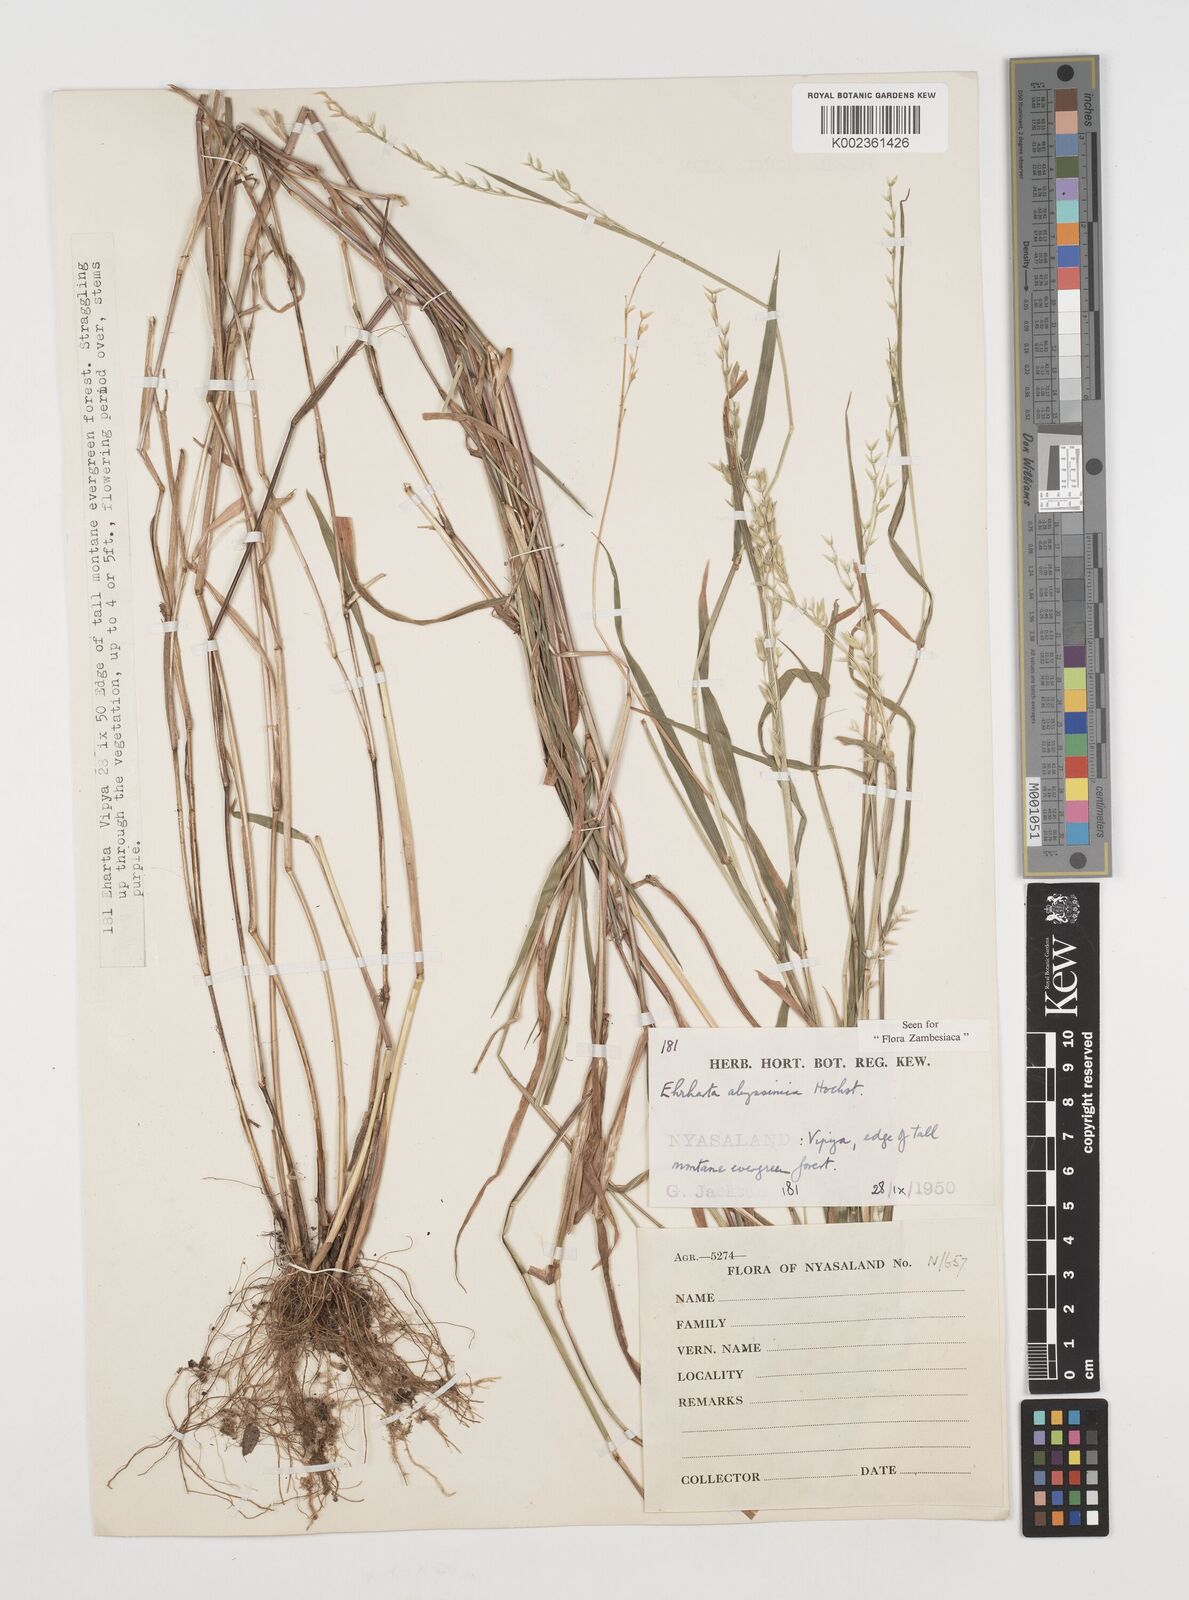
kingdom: Plantae
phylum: Tracheophyta
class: Liliopsida
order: Poales
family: Poaceae
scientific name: Poaceae
